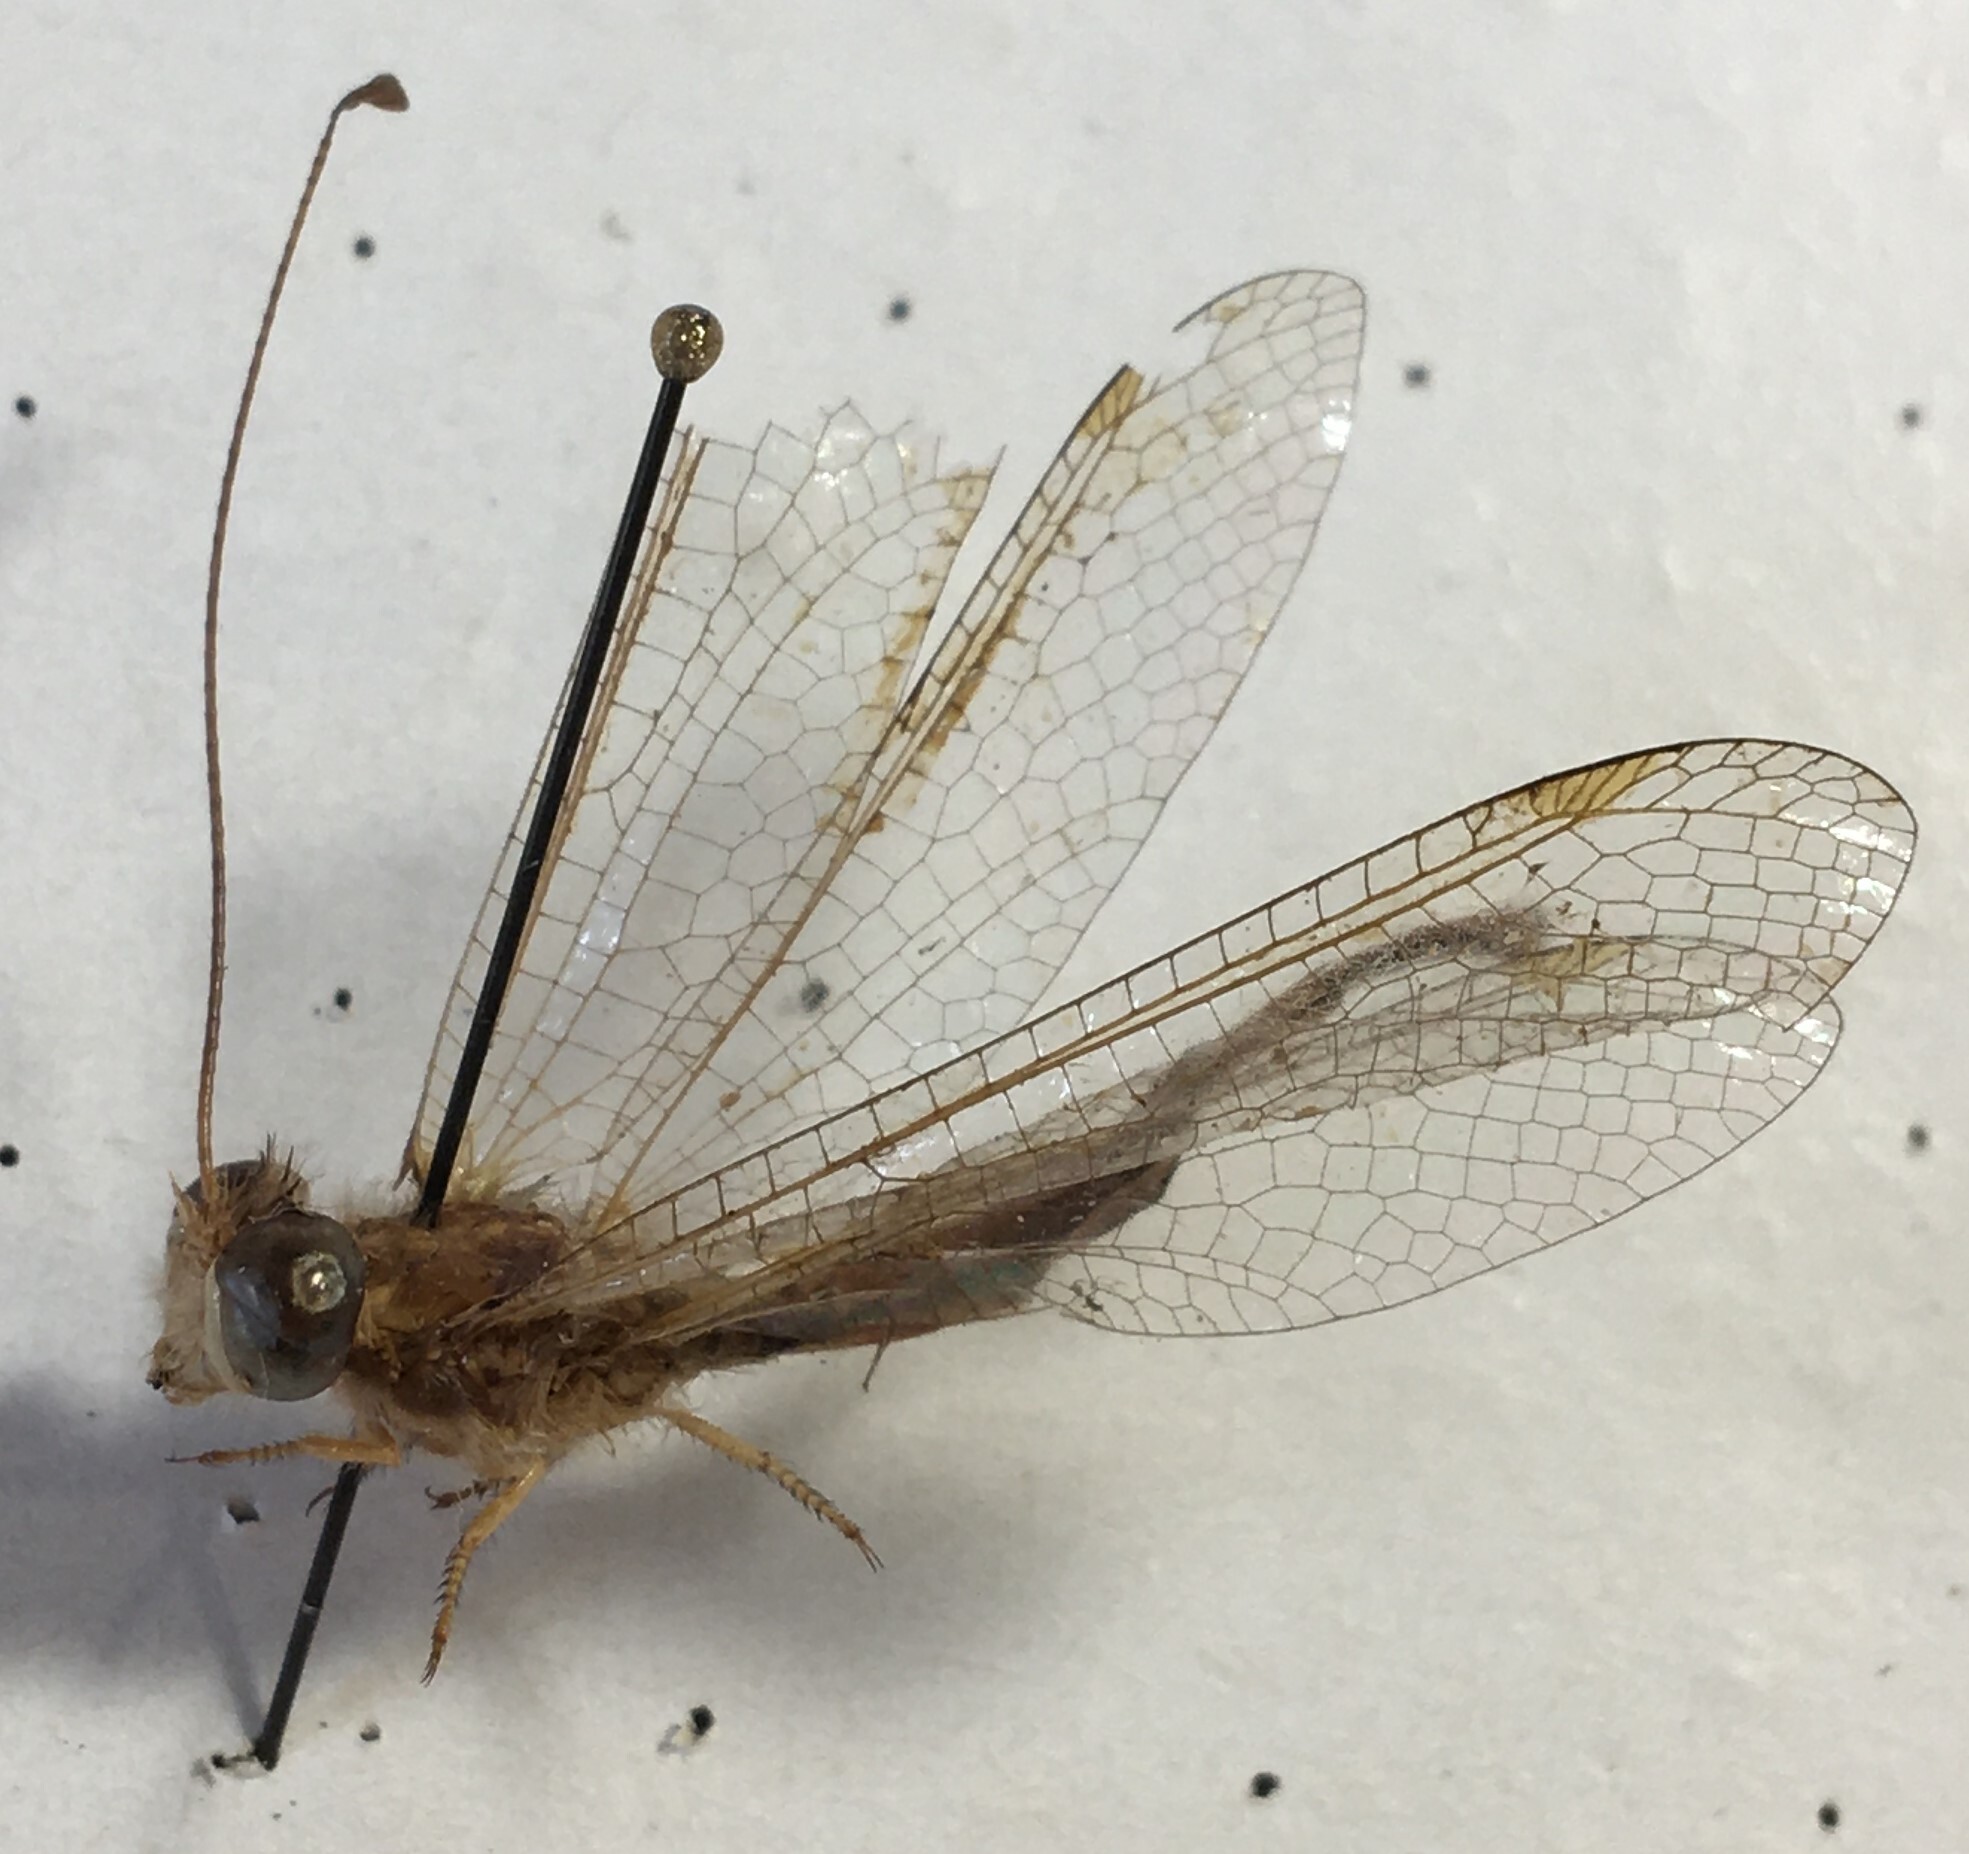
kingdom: Animalia
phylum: Arthropoda
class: Insecta
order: Neuroptera
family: Ascalaphidae
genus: Ascalaphus
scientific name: Ascalaphus festivus
